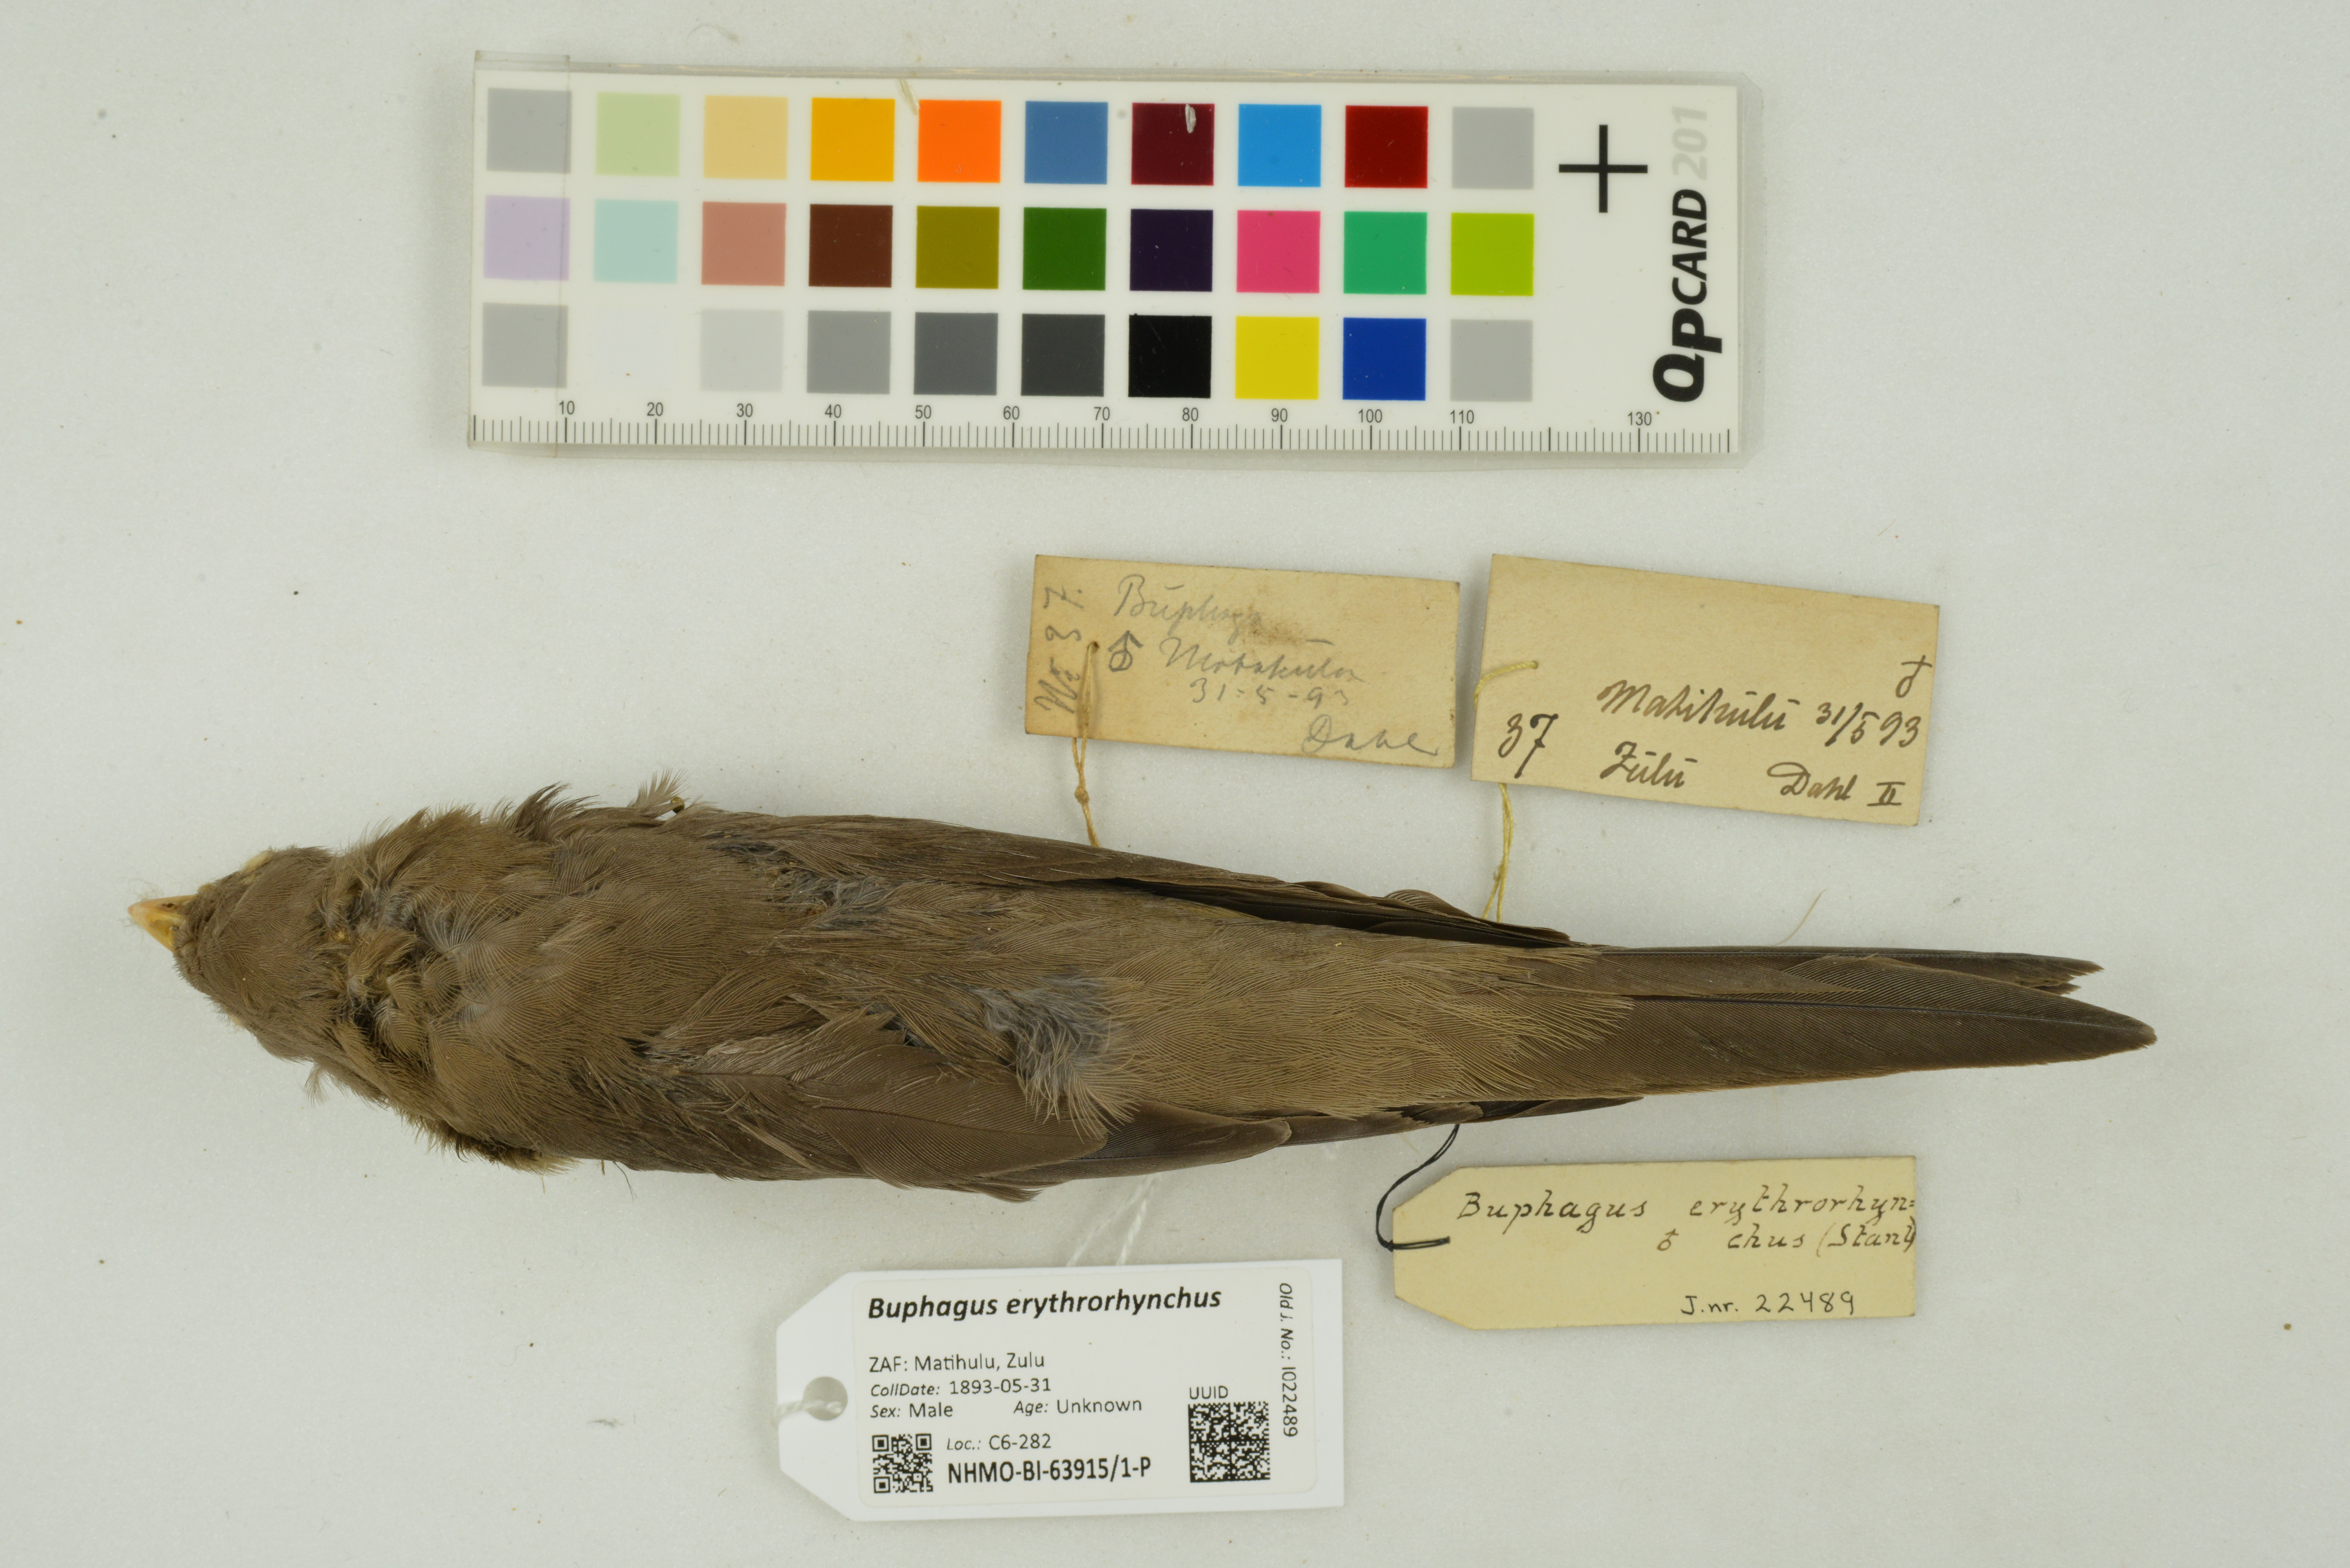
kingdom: Animalia
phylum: Chordata
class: Aves
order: Passeriformes
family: Buphagidae
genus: Buphagus
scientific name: Buphagus erythrorhynchus
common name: Red-billed oxpecker
